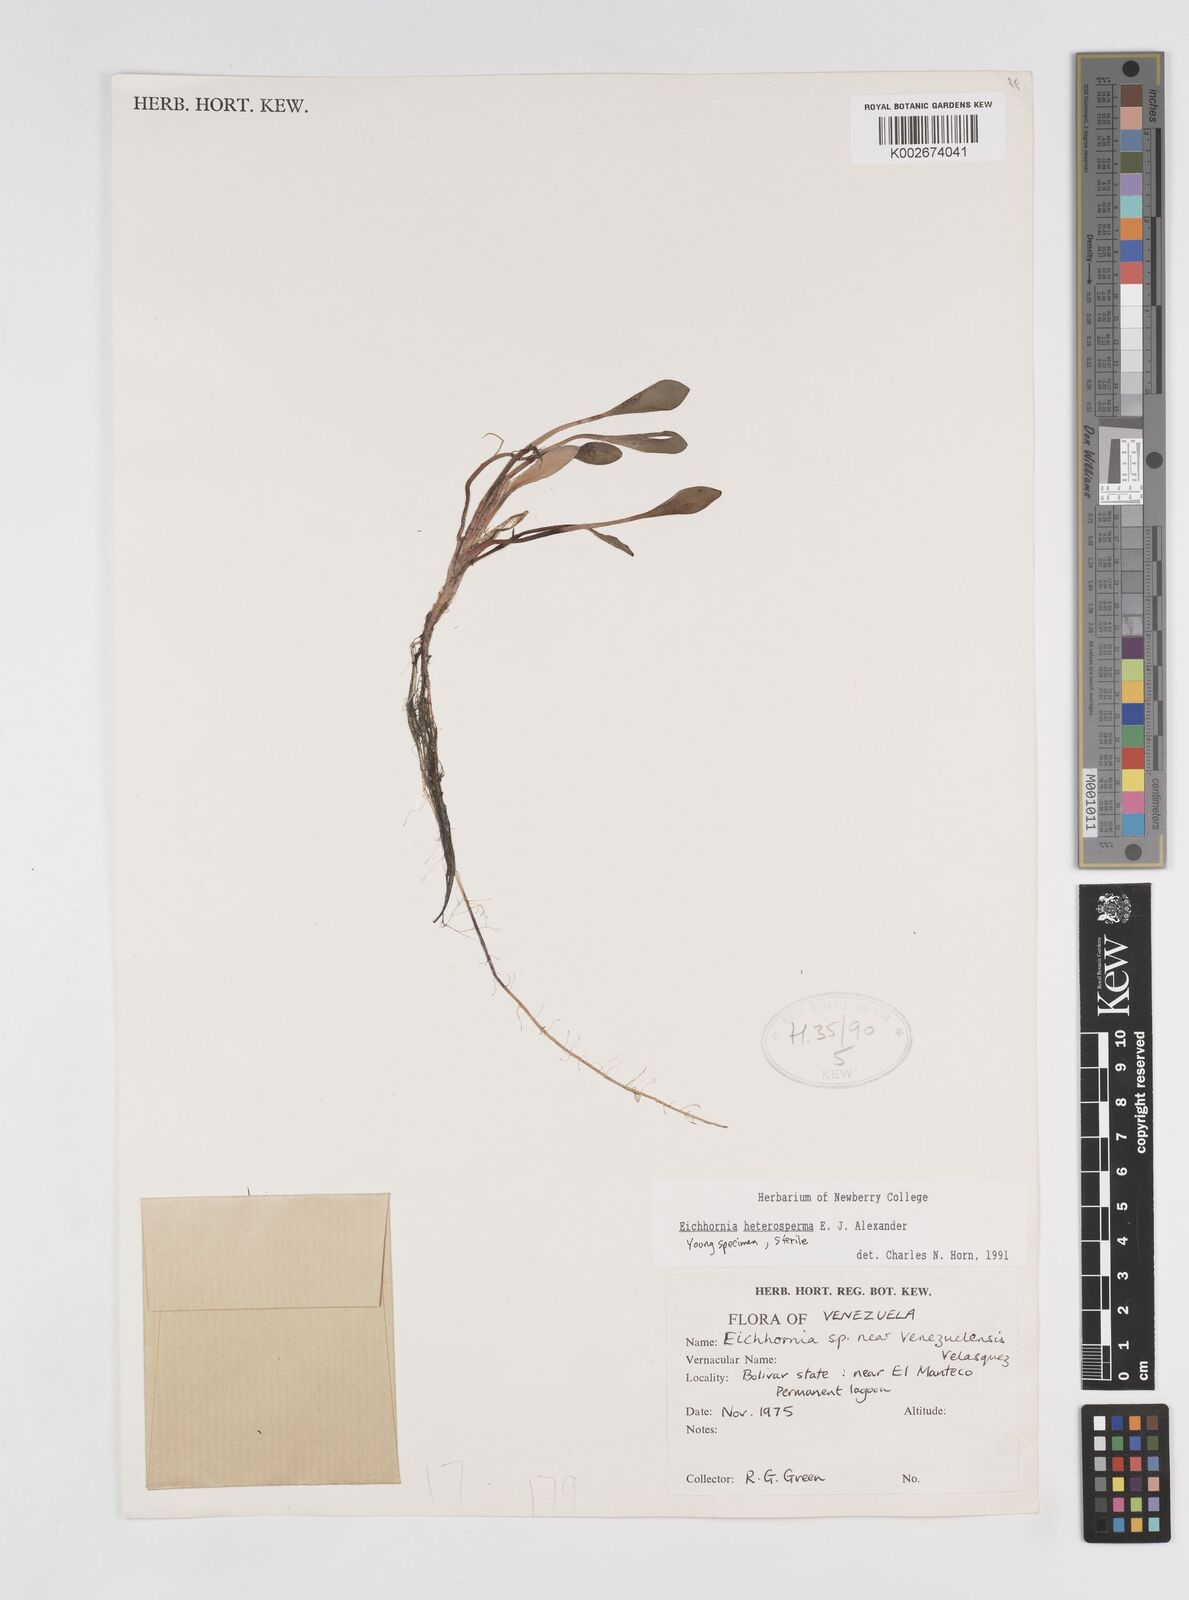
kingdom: Plantae
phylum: Tracheophyta
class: Liliopsida
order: Commelinales
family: Pontederiaceae
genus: Pontederia
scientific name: Pontederia heterosperma
